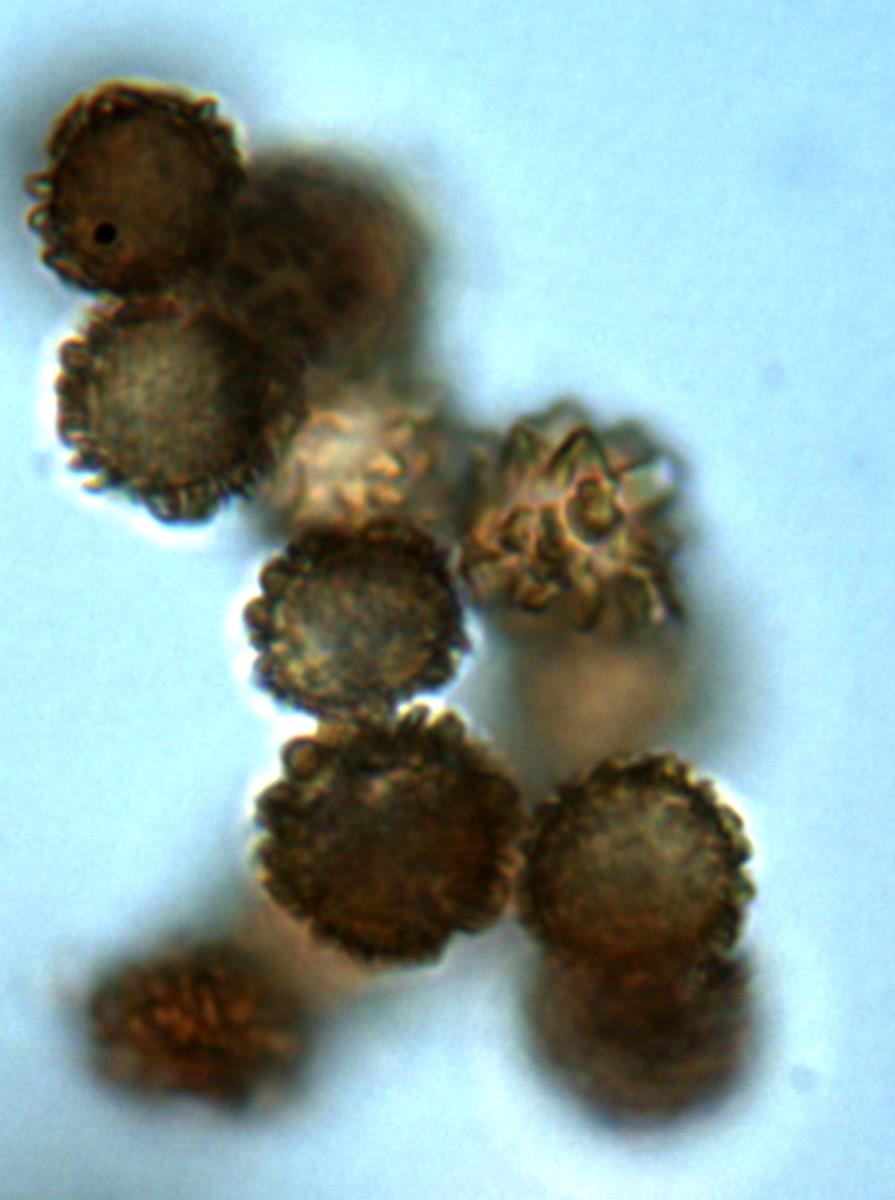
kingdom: Fungi
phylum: Basidiomycota
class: Agaricomycetes
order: Boletales
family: Sclerodermataceae
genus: Pisolithus
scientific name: Pisolithus tinctorius
